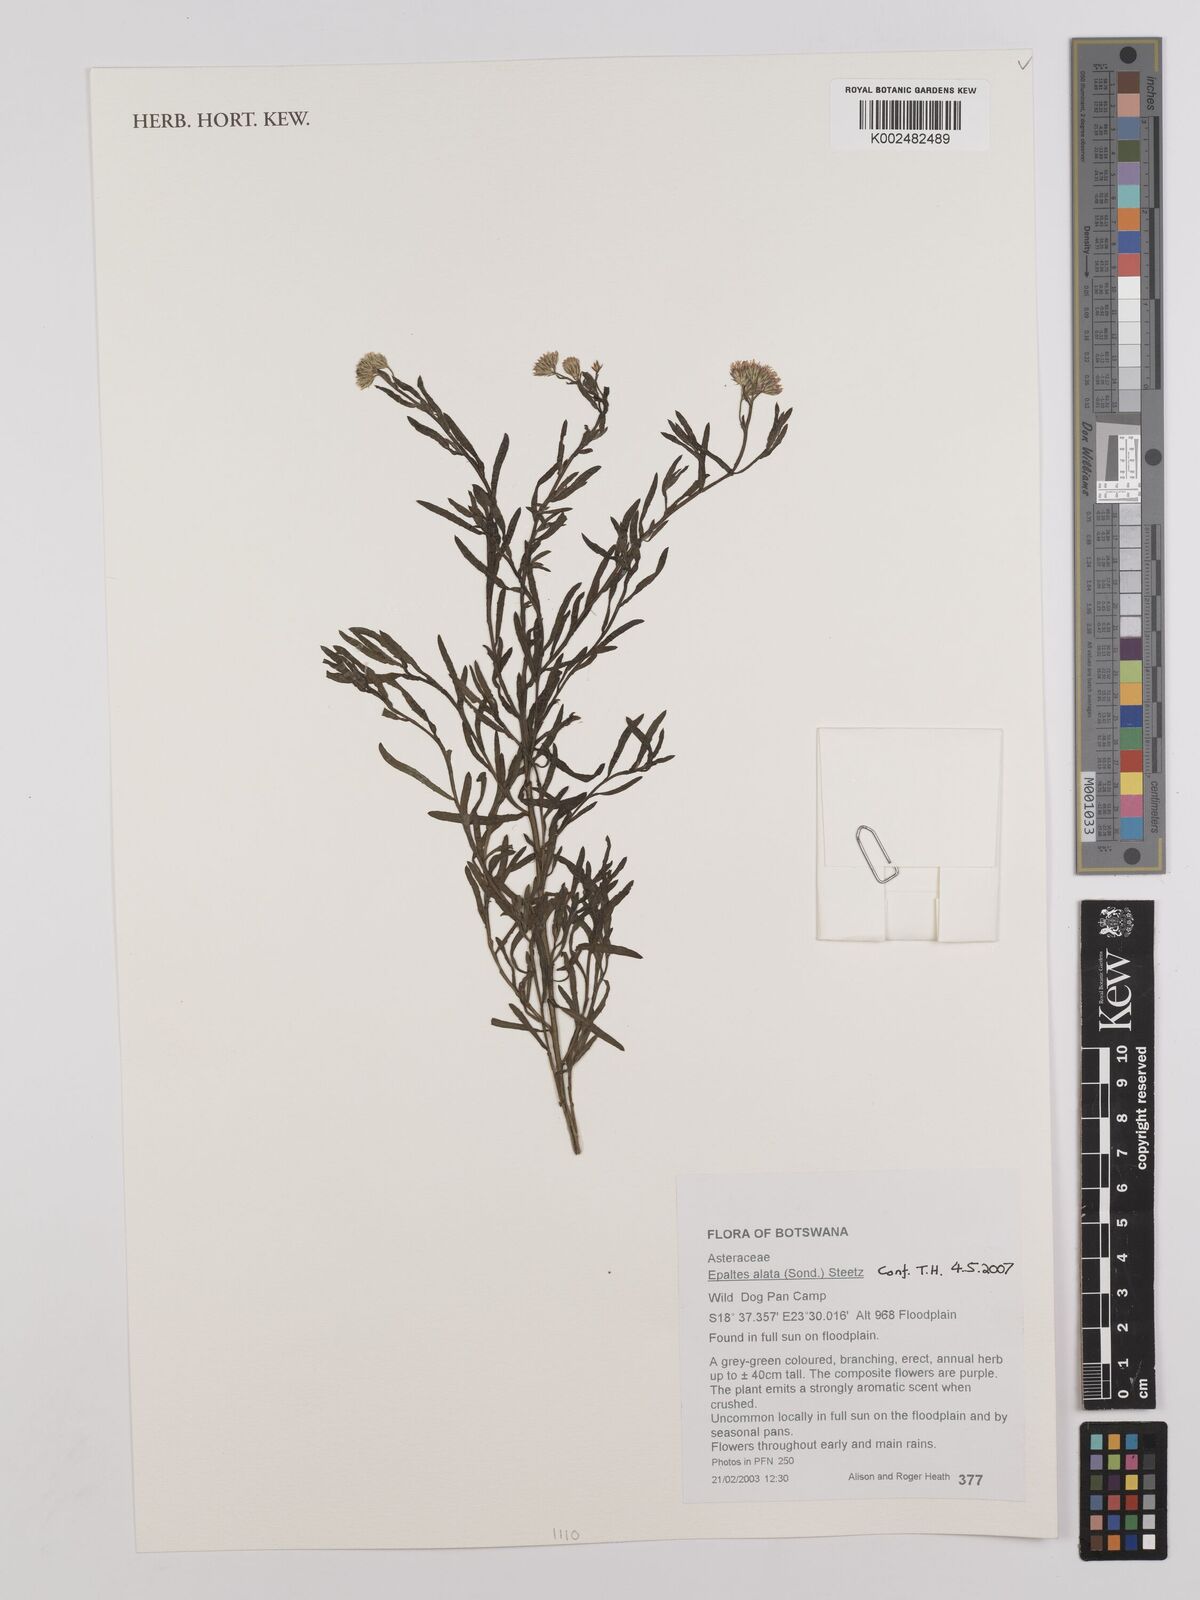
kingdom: Plantae
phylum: Tracheophyta
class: Magnoliopsida
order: Asterales
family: Asteraceae
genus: Litogyne
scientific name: Litogyne gariepina
